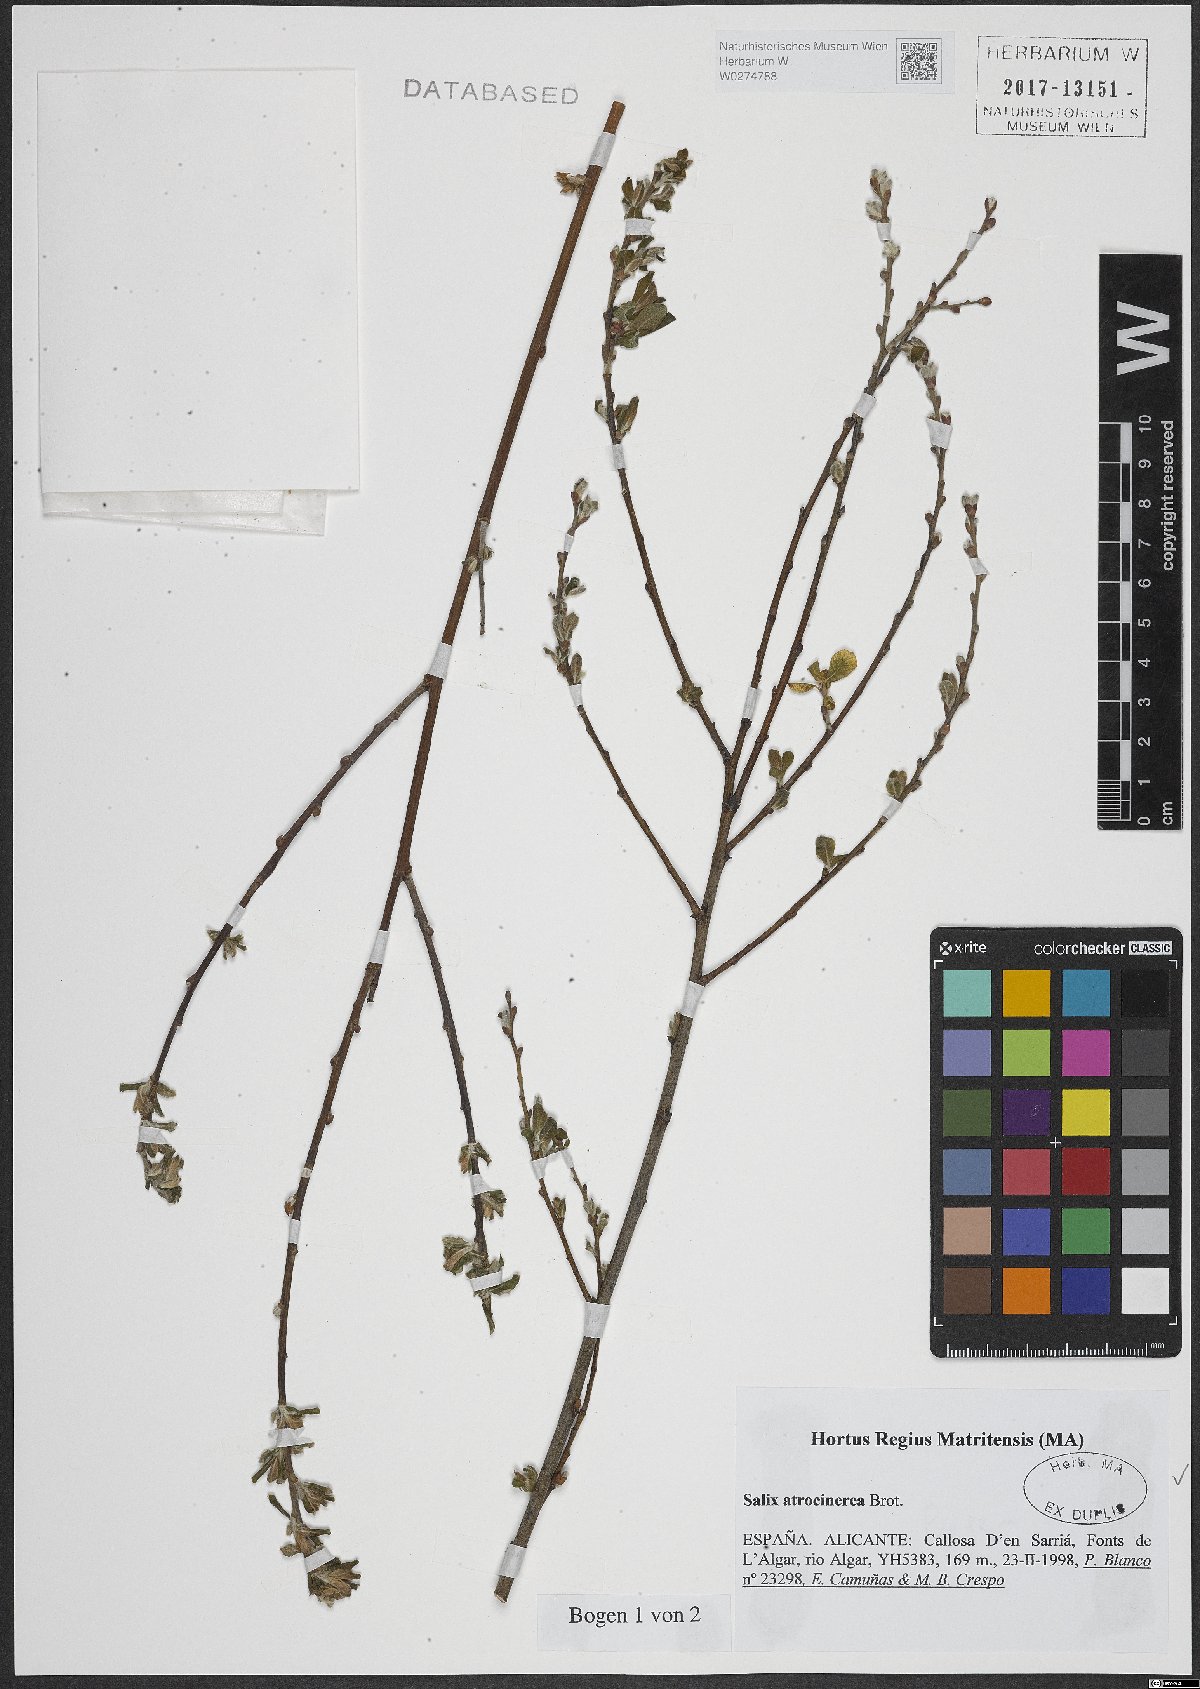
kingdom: Plantae
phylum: Tracheophyta
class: Magnoliopsida
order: Malpighiales
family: Salicaceae
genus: Salix
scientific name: Salix atrocinerea
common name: Rusty willow
